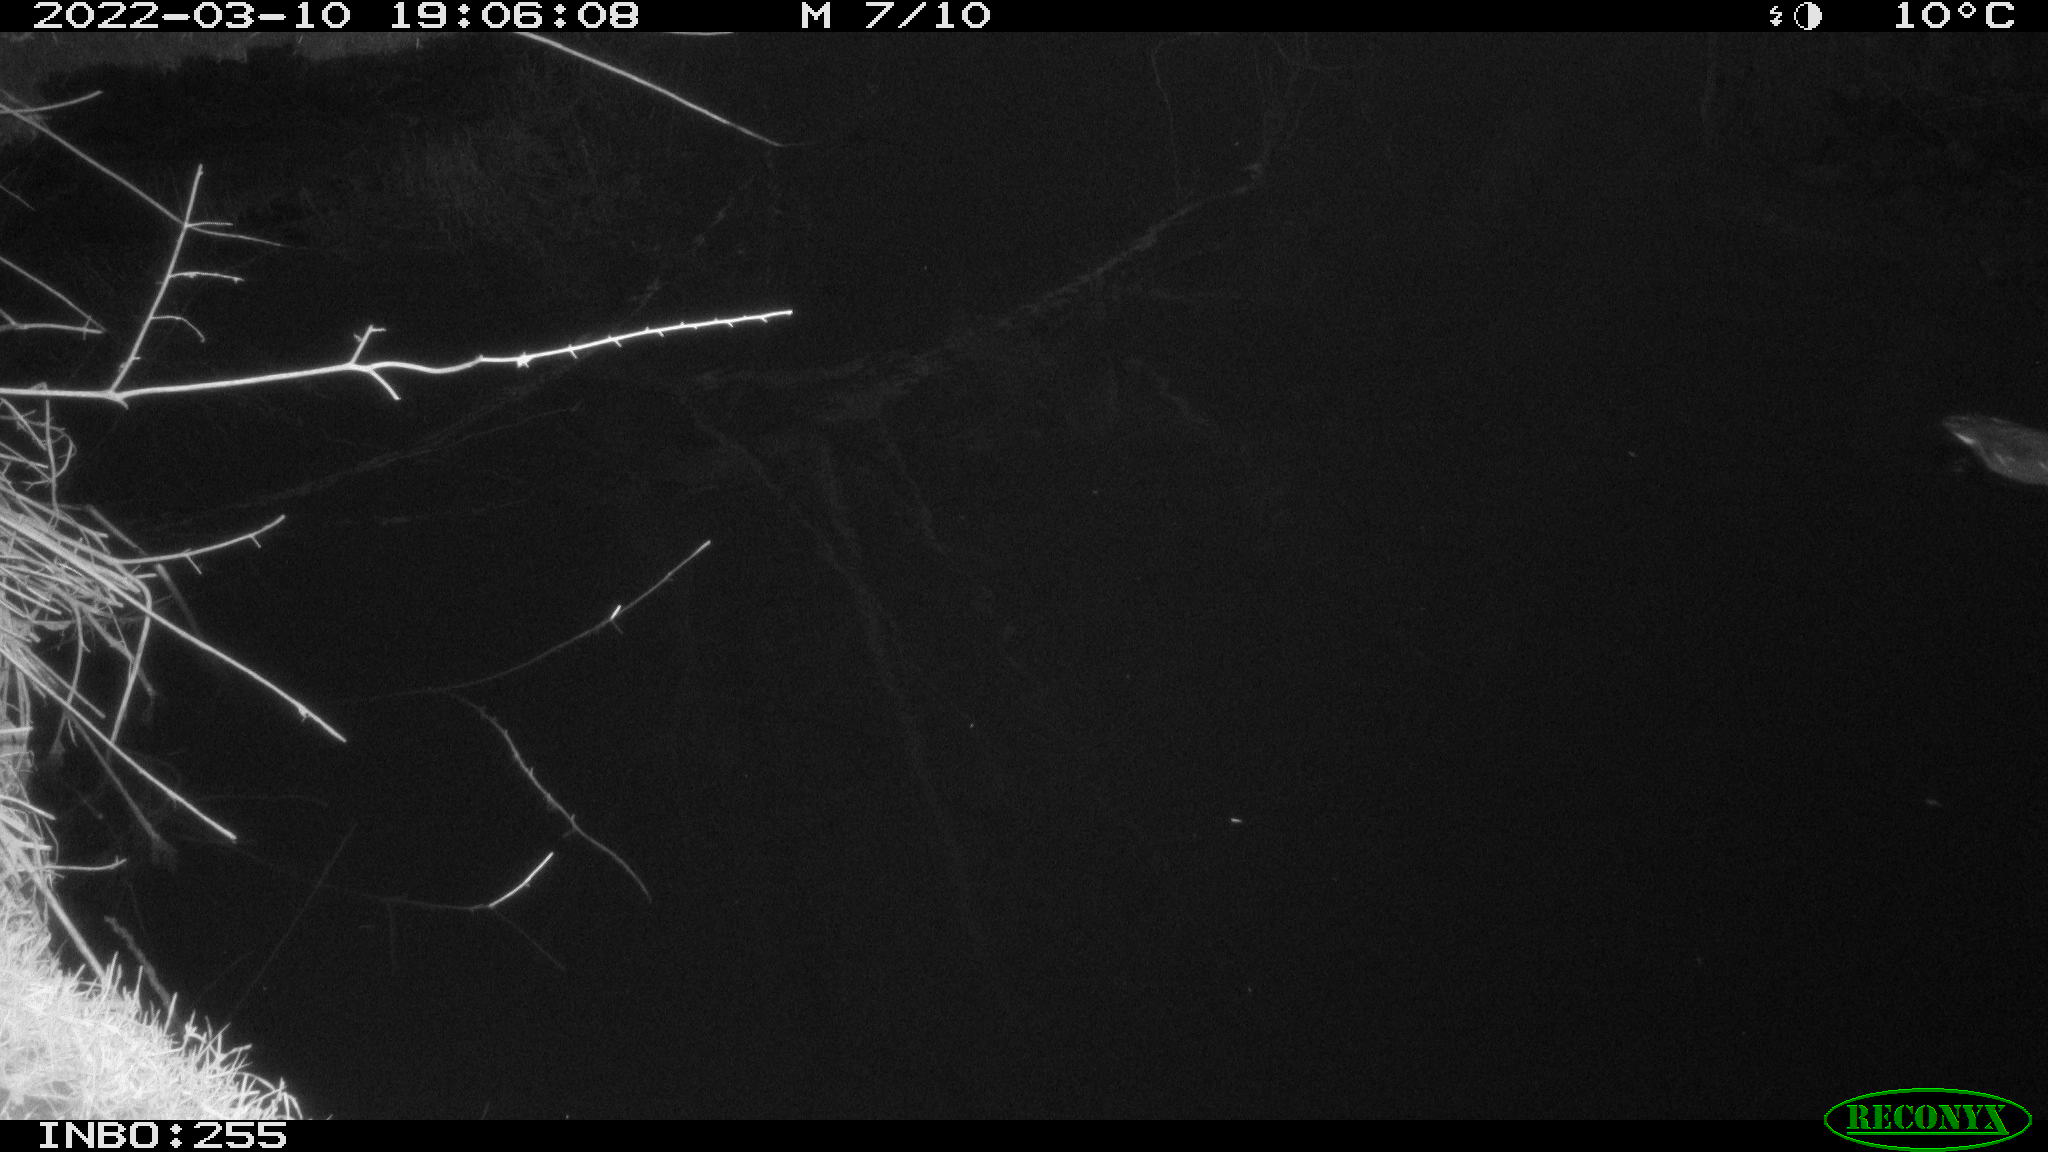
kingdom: Animalia
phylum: Chordata
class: Aves
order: Gruiformes
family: Rallidae
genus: Gallinula
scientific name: Gallinula chloropus
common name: Common moorhen
